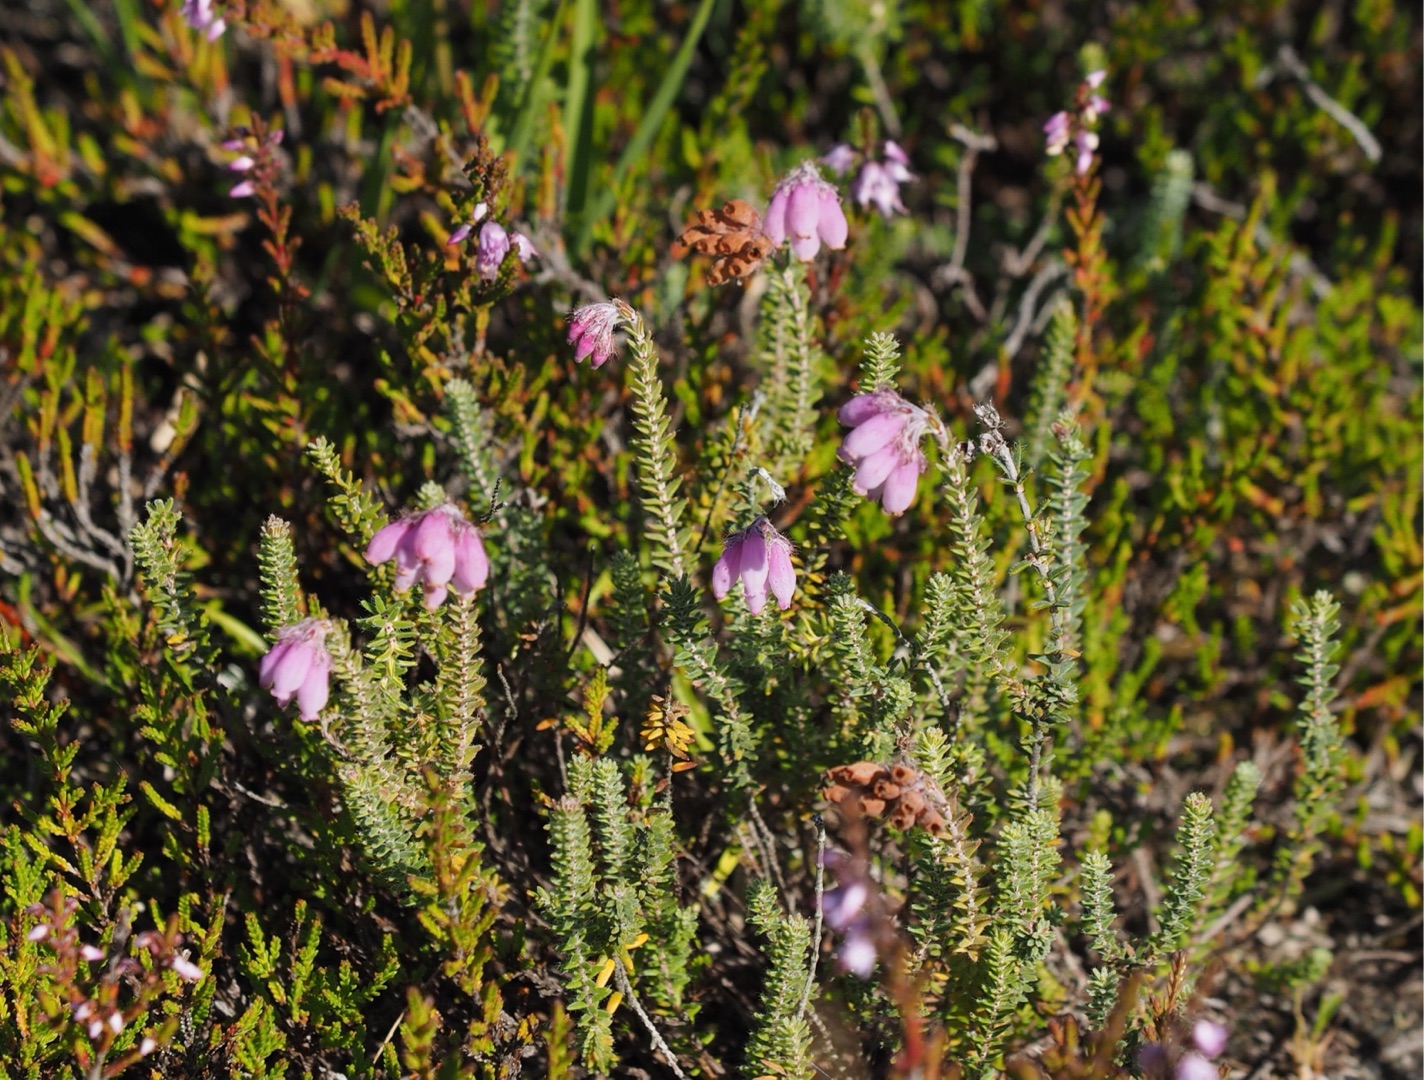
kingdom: Plantae
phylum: Tracheophyta
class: Magnoliopsida
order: Ericales
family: Ericaceae
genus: Erica
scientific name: Erica tetralix
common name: Klokkelyng
